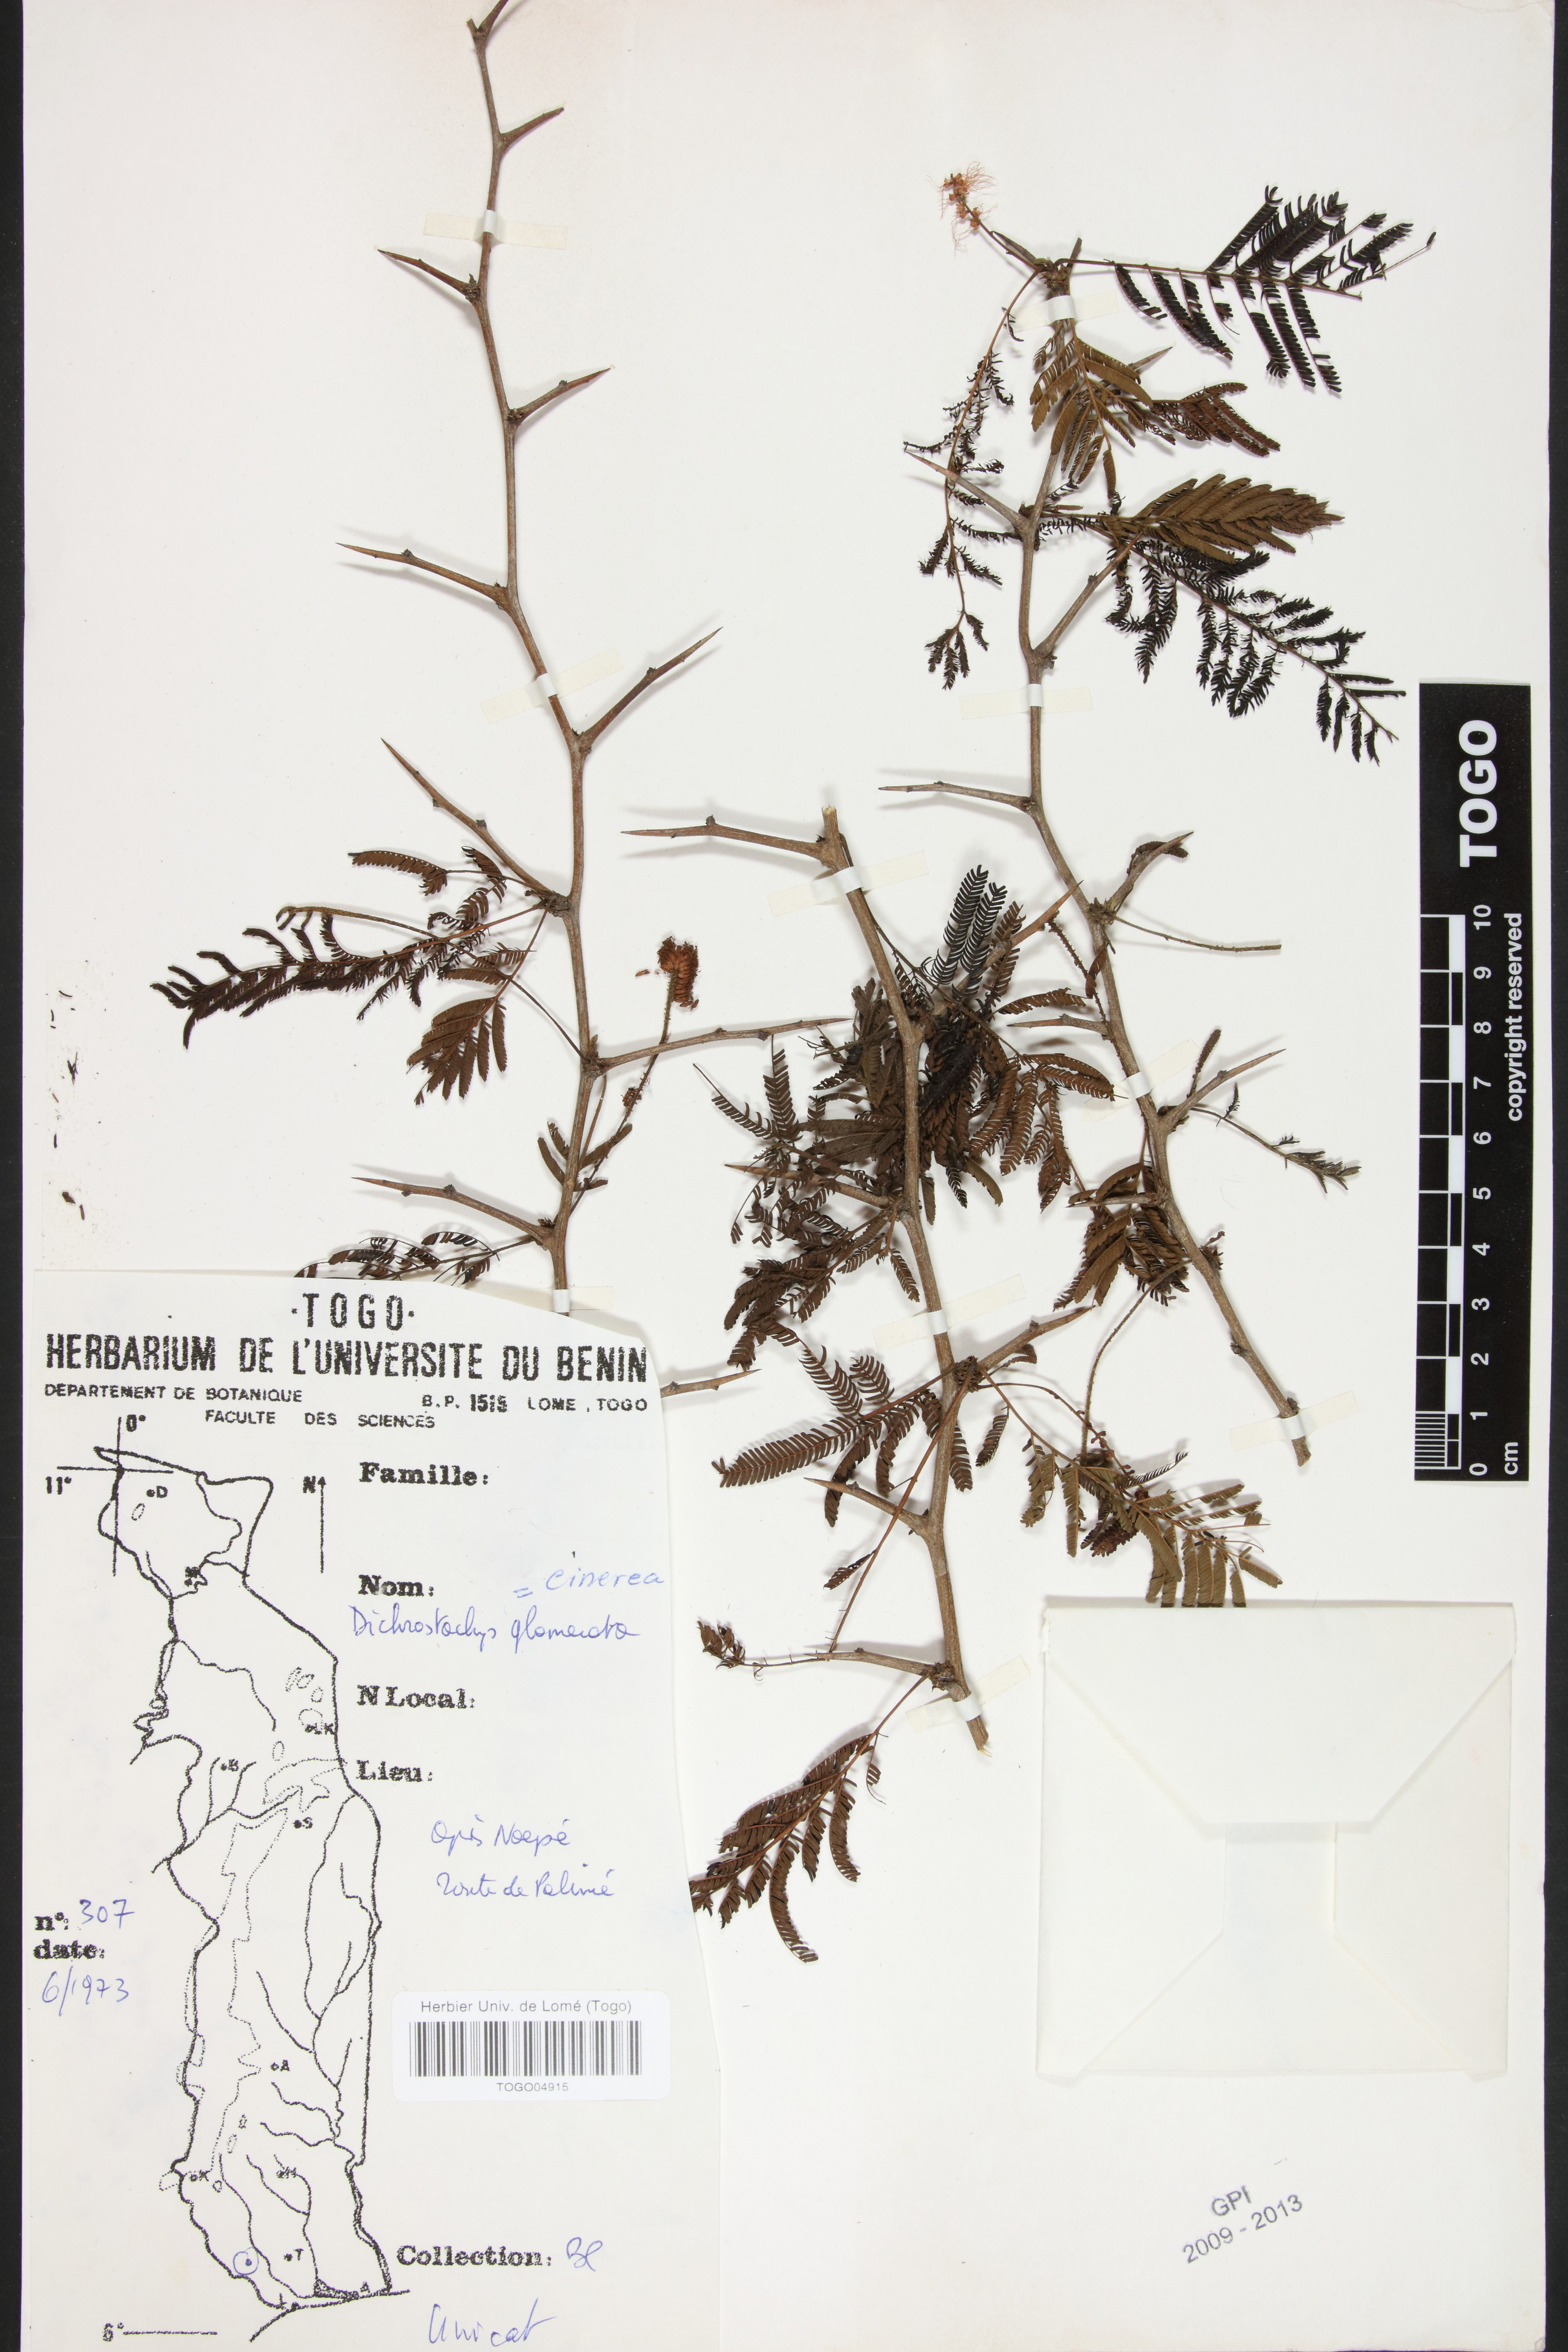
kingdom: Plantae
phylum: Tracheophyta
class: Magnoliopsida
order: Fabales
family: Fabaceae
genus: Dichrostachys
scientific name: Dichrostachys cinerea
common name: Sicklebush
